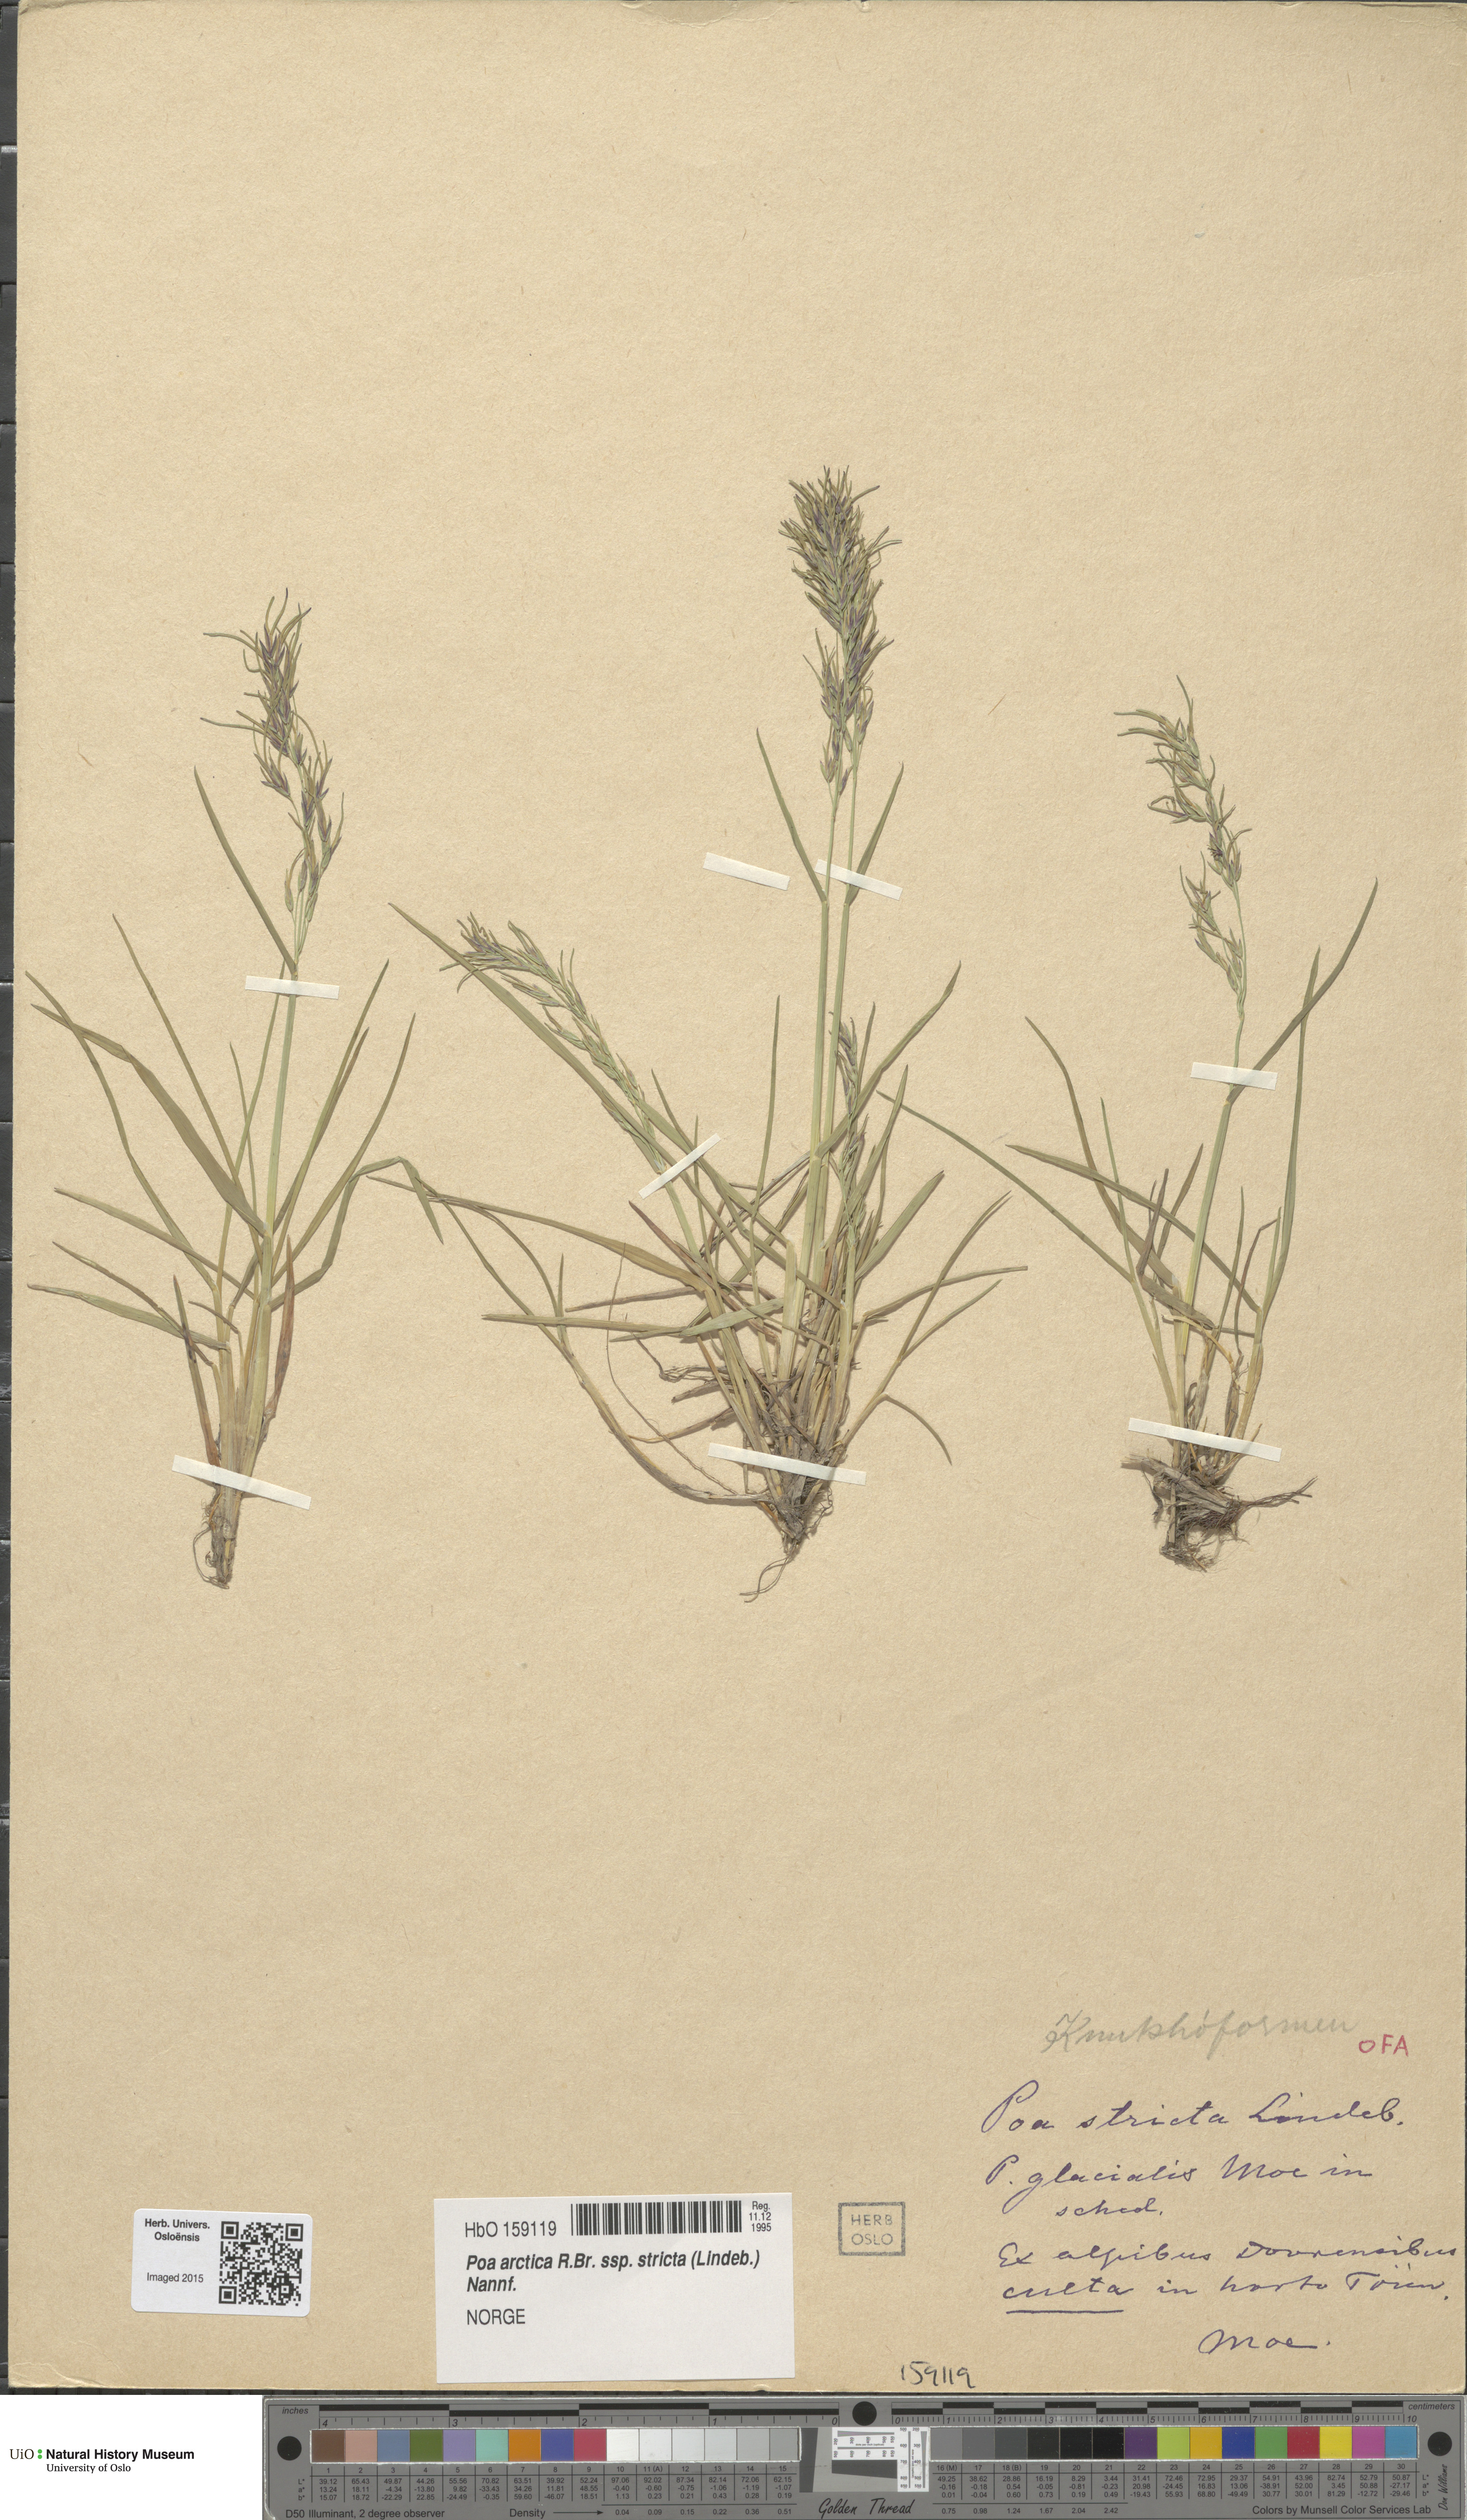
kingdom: Plantae
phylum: Tracheophyta
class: Liliopsida
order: Poales
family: Poaceae
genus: Poa
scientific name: Poa lindebergii
